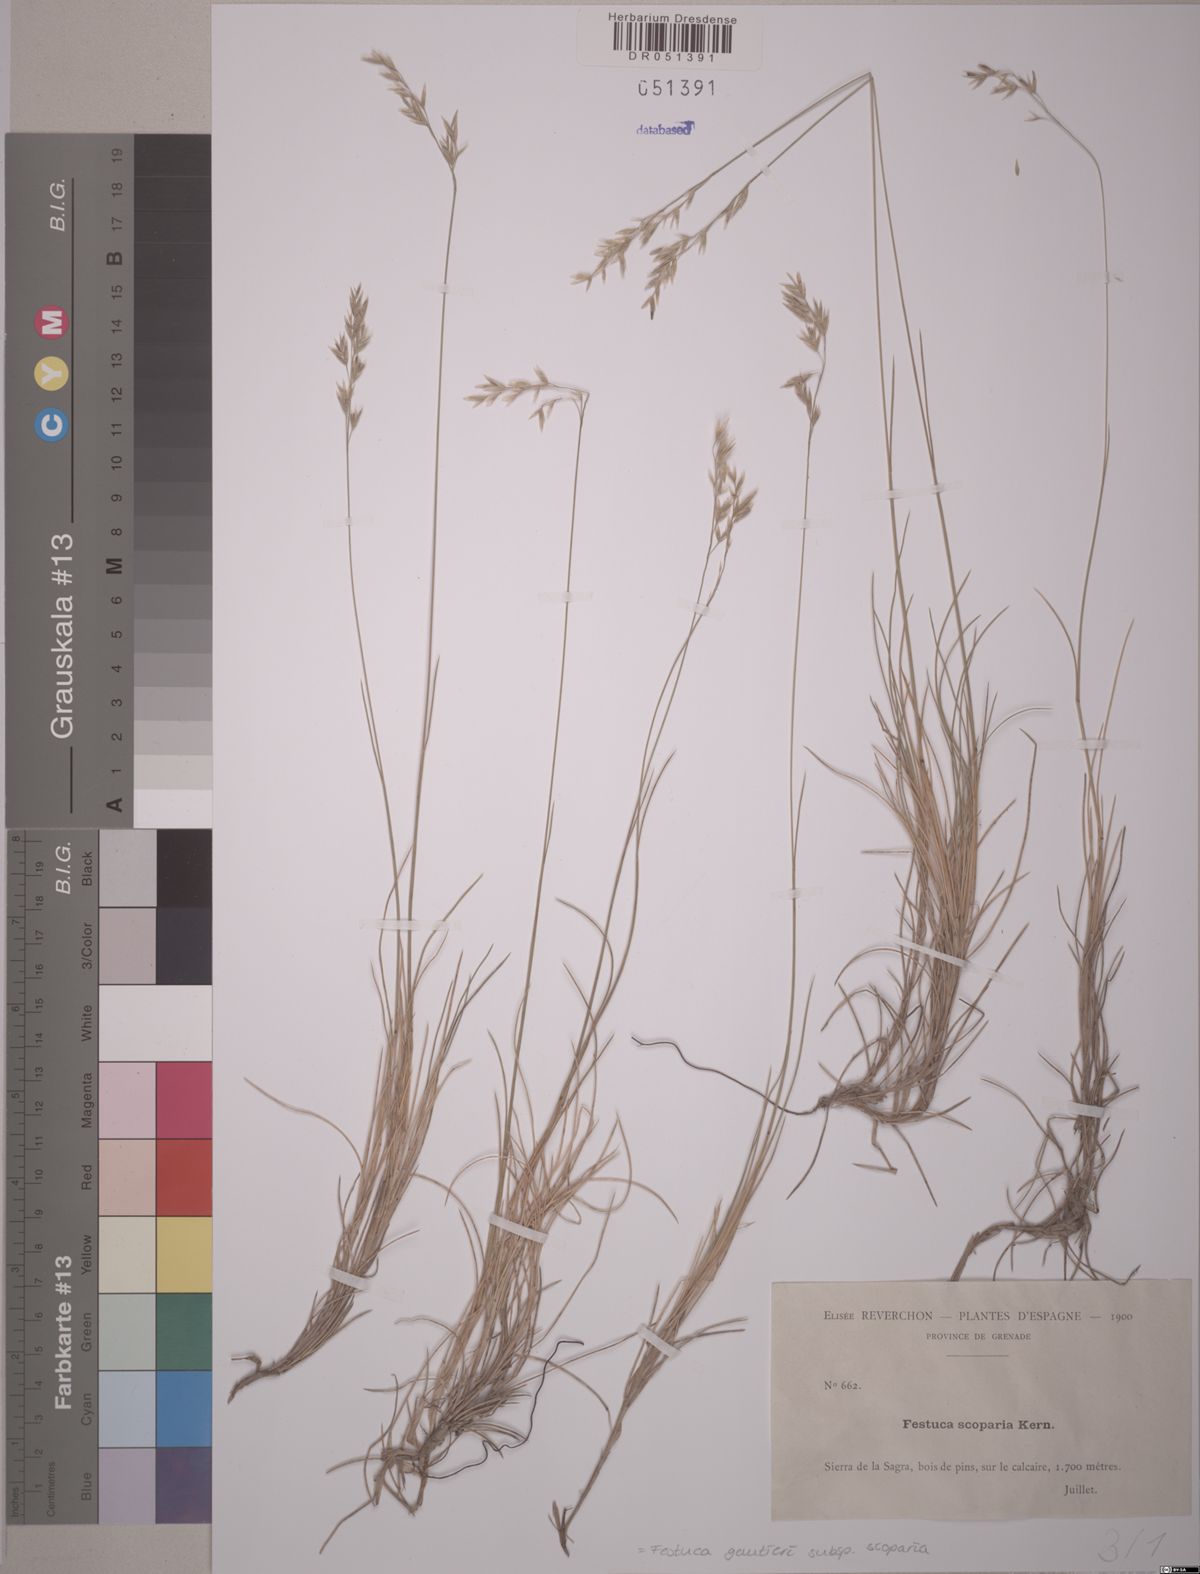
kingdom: Plantae
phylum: Tracheophyta
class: Liliopsida
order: Poales
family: Poaceae
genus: Festuca
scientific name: Festuca gautieri
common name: Spiky fescue
